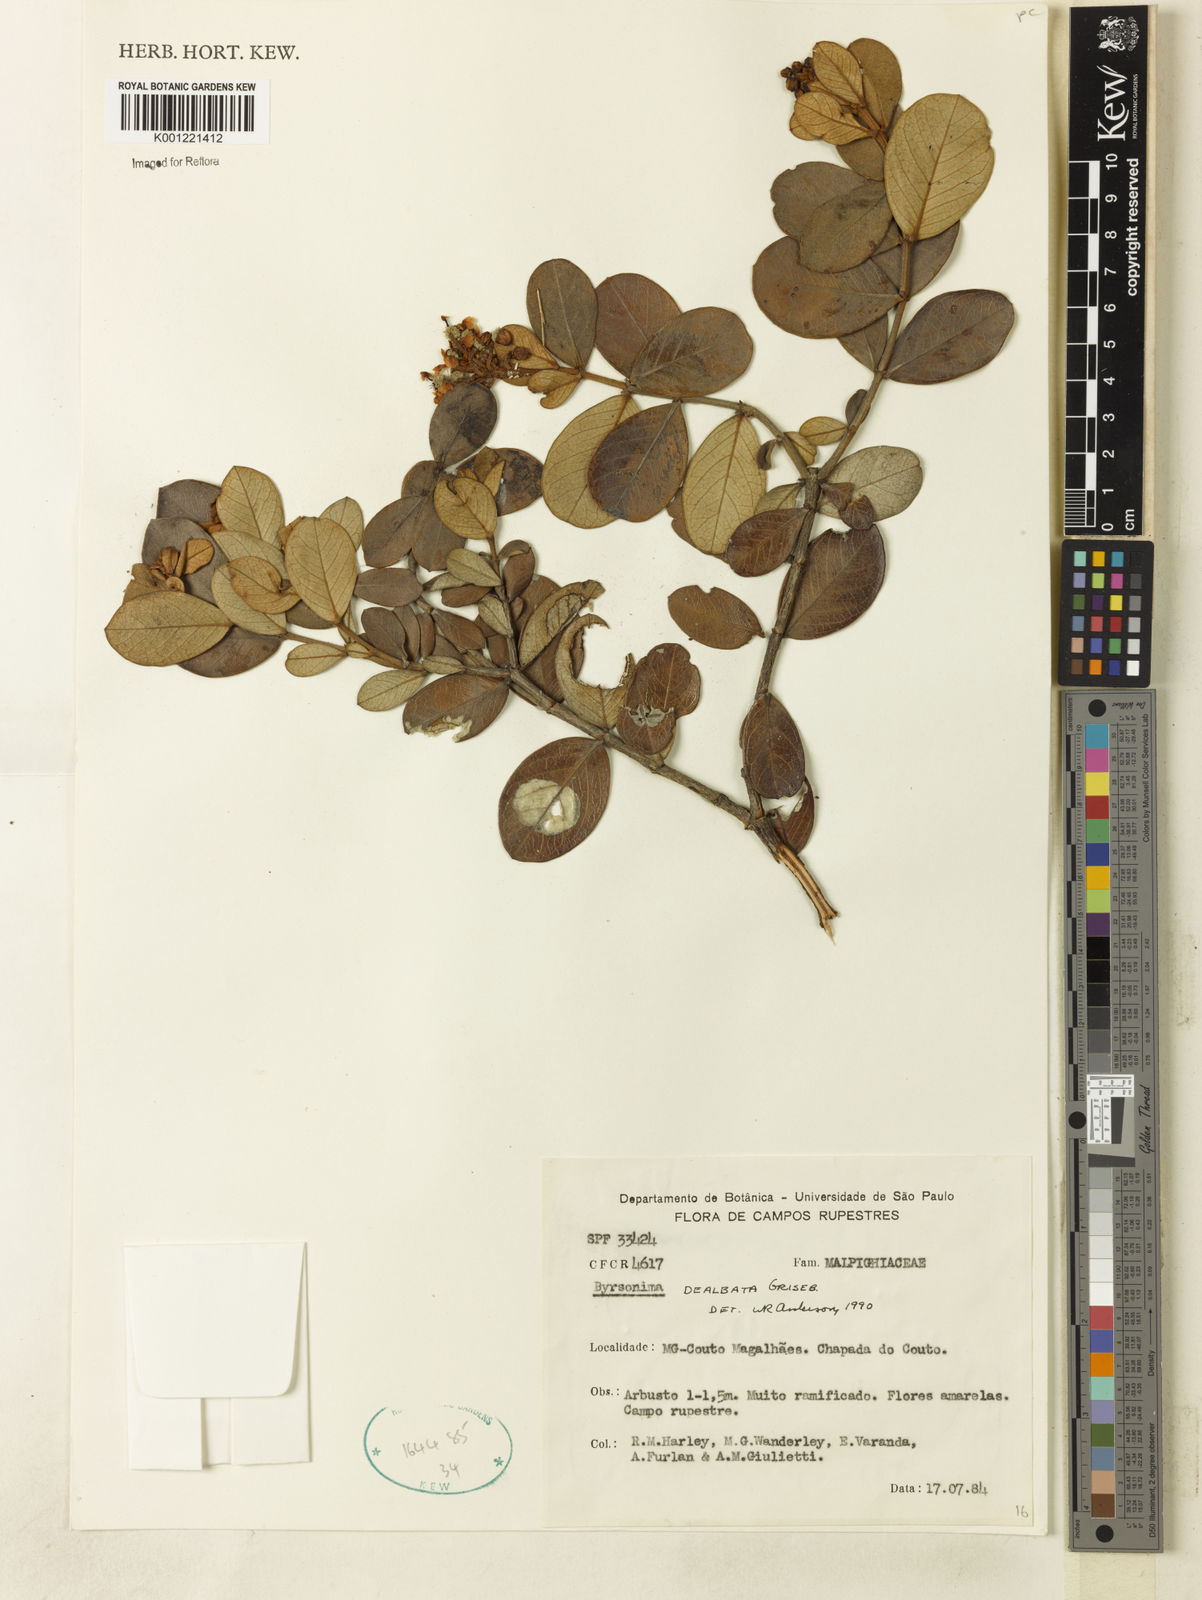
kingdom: Plantae
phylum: Tracheophyta
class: Magnoliopsida
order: Malpighiales
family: Malpighiaceae
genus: Byrsonima
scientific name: Byrsonima dealbata
